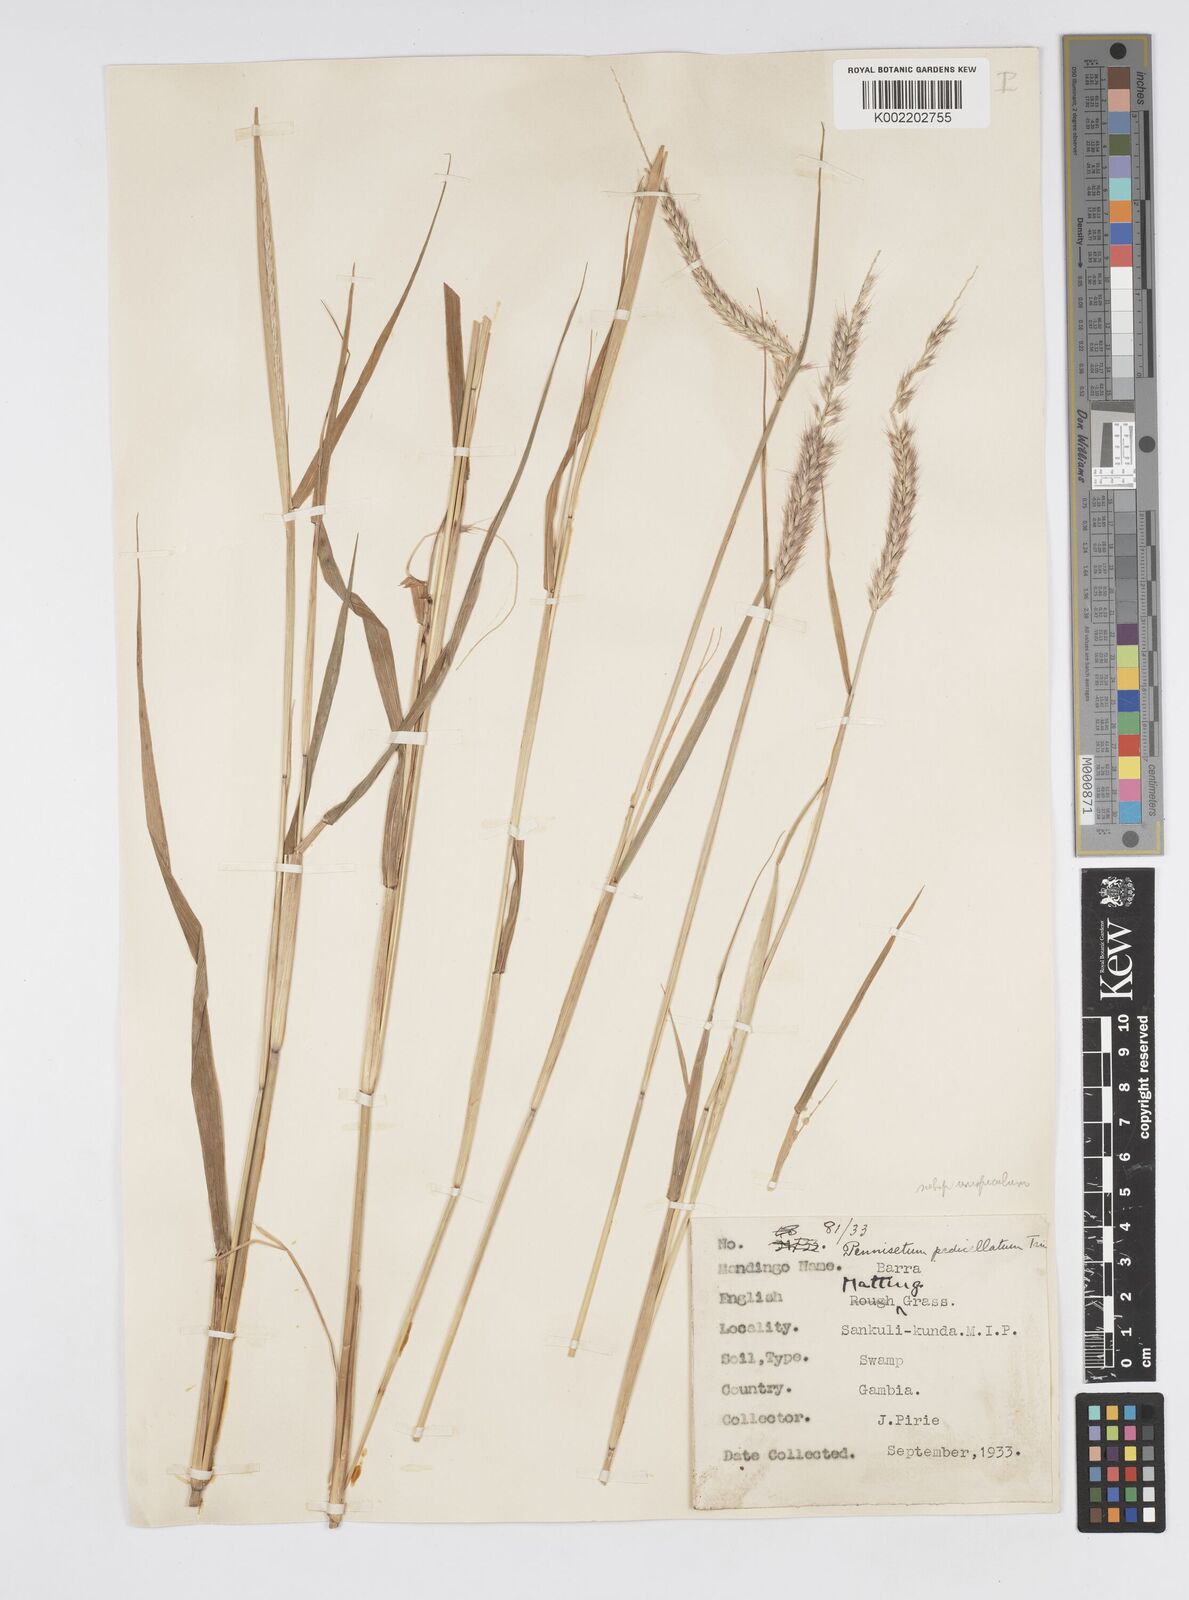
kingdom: Plantae
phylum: Tracheophyta
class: Liliopsida
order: Poales
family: Poaceae
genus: Cenchrus
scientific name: Cenchrus pedicellatus
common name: Hairy fountain grass
